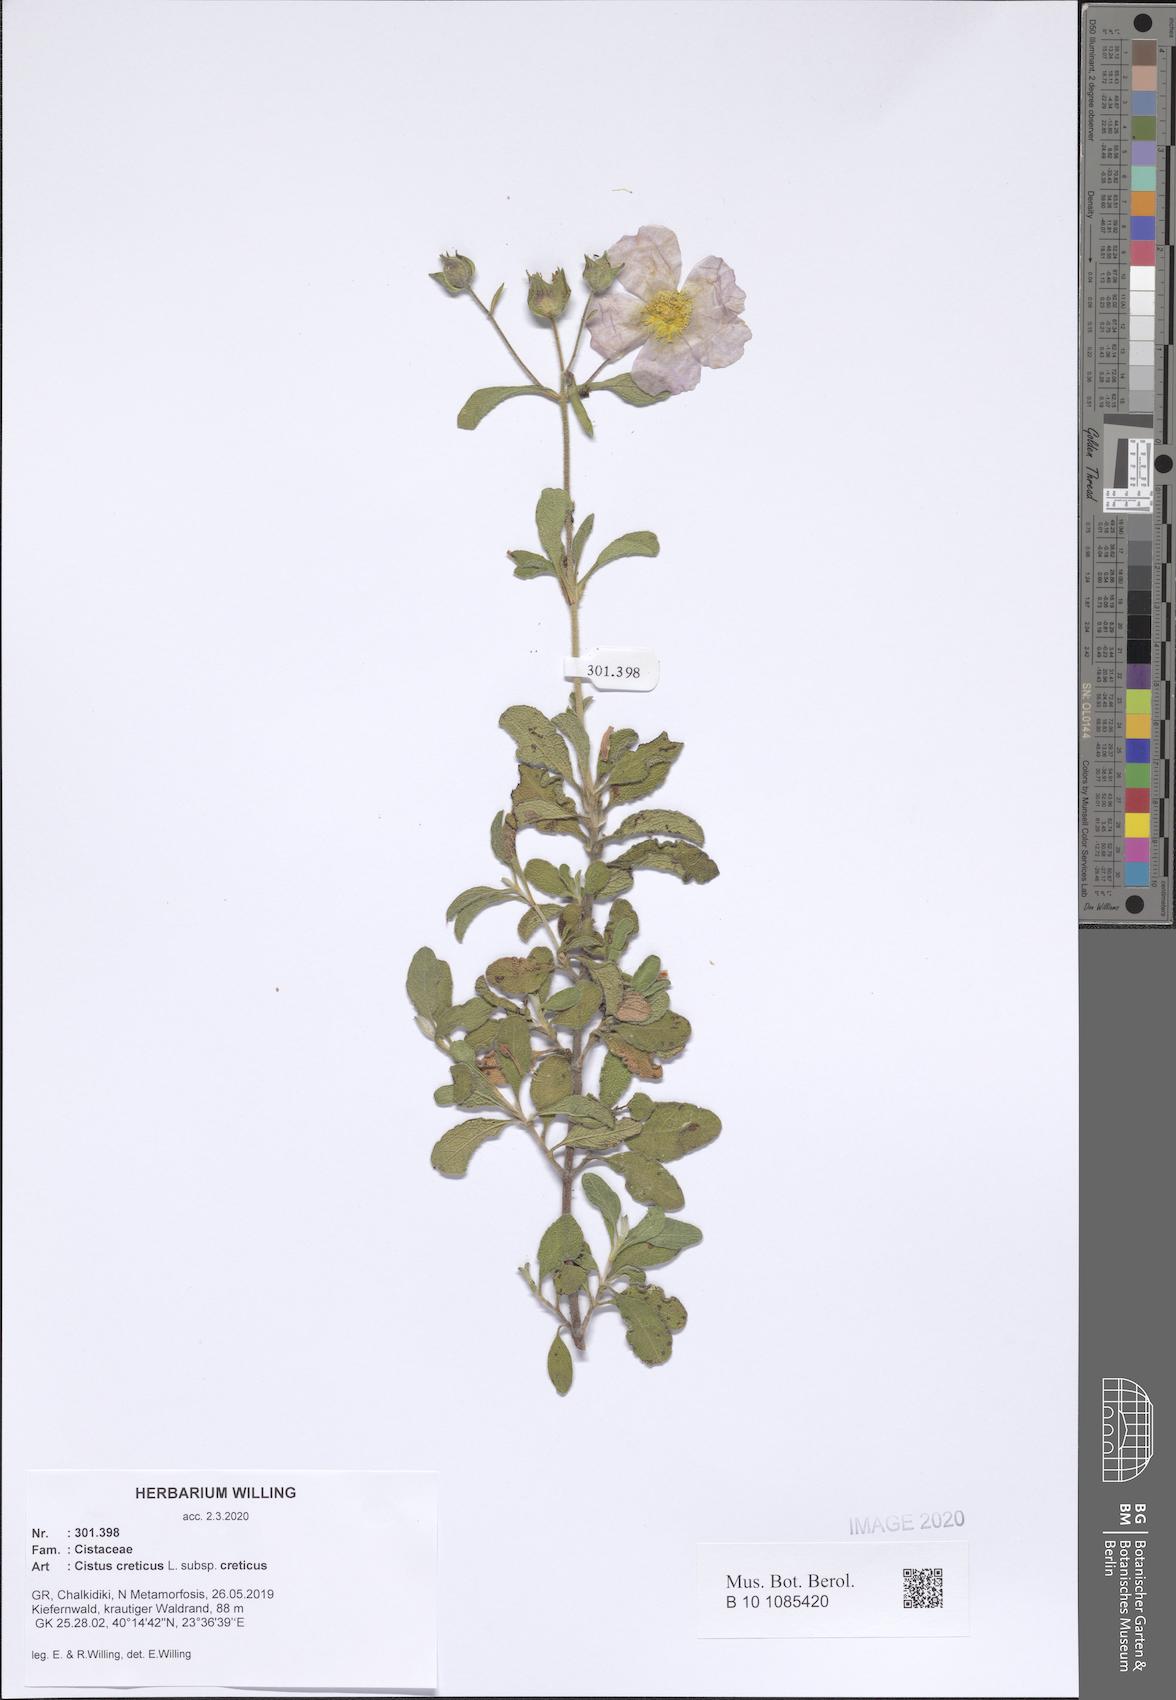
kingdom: Plantae
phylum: Tracheophyta
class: Magnoliopsida
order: Malvales
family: Cistaceae
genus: Cistus
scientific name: Cistus creticus
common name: Cretan rockrose
